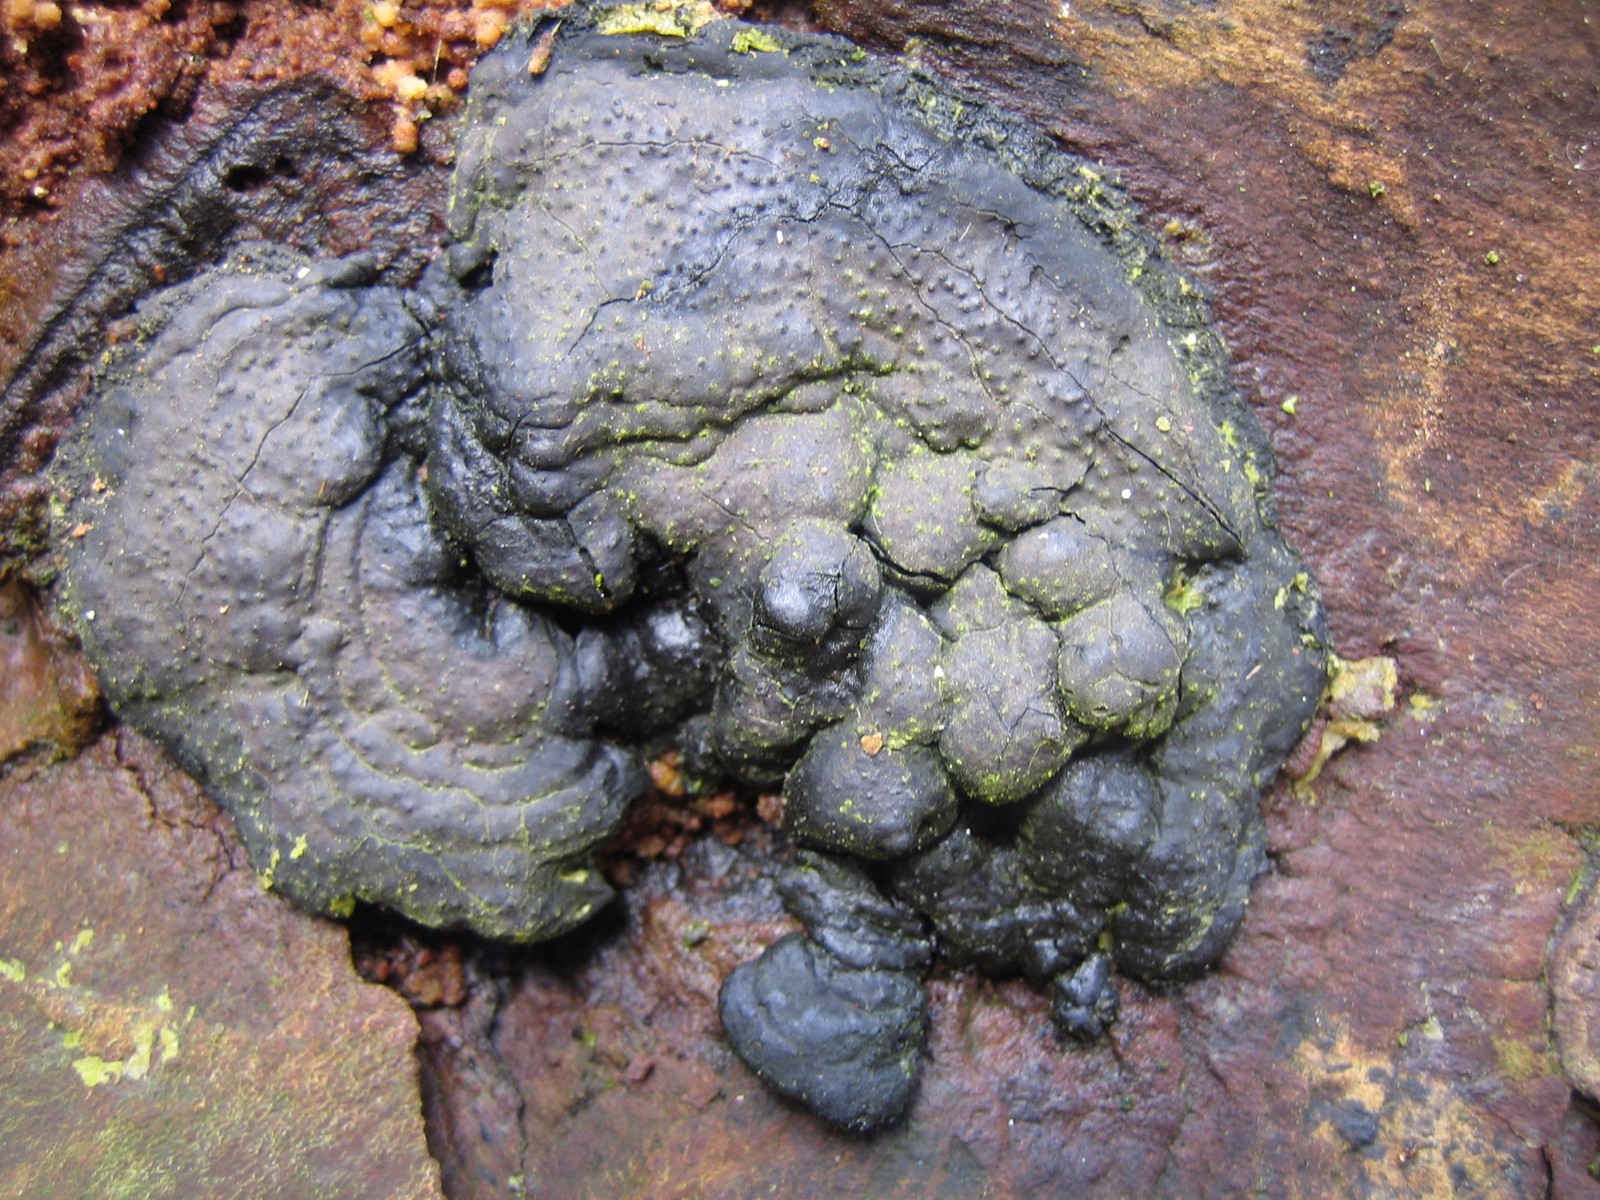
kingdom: Fungi
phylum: Ascomycota
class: Sordariomycetes
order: Xylariales
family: Xylariaceae
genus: Kretzschmaria
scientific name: Kretzschmaria deusta
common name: stor kulsvamp
